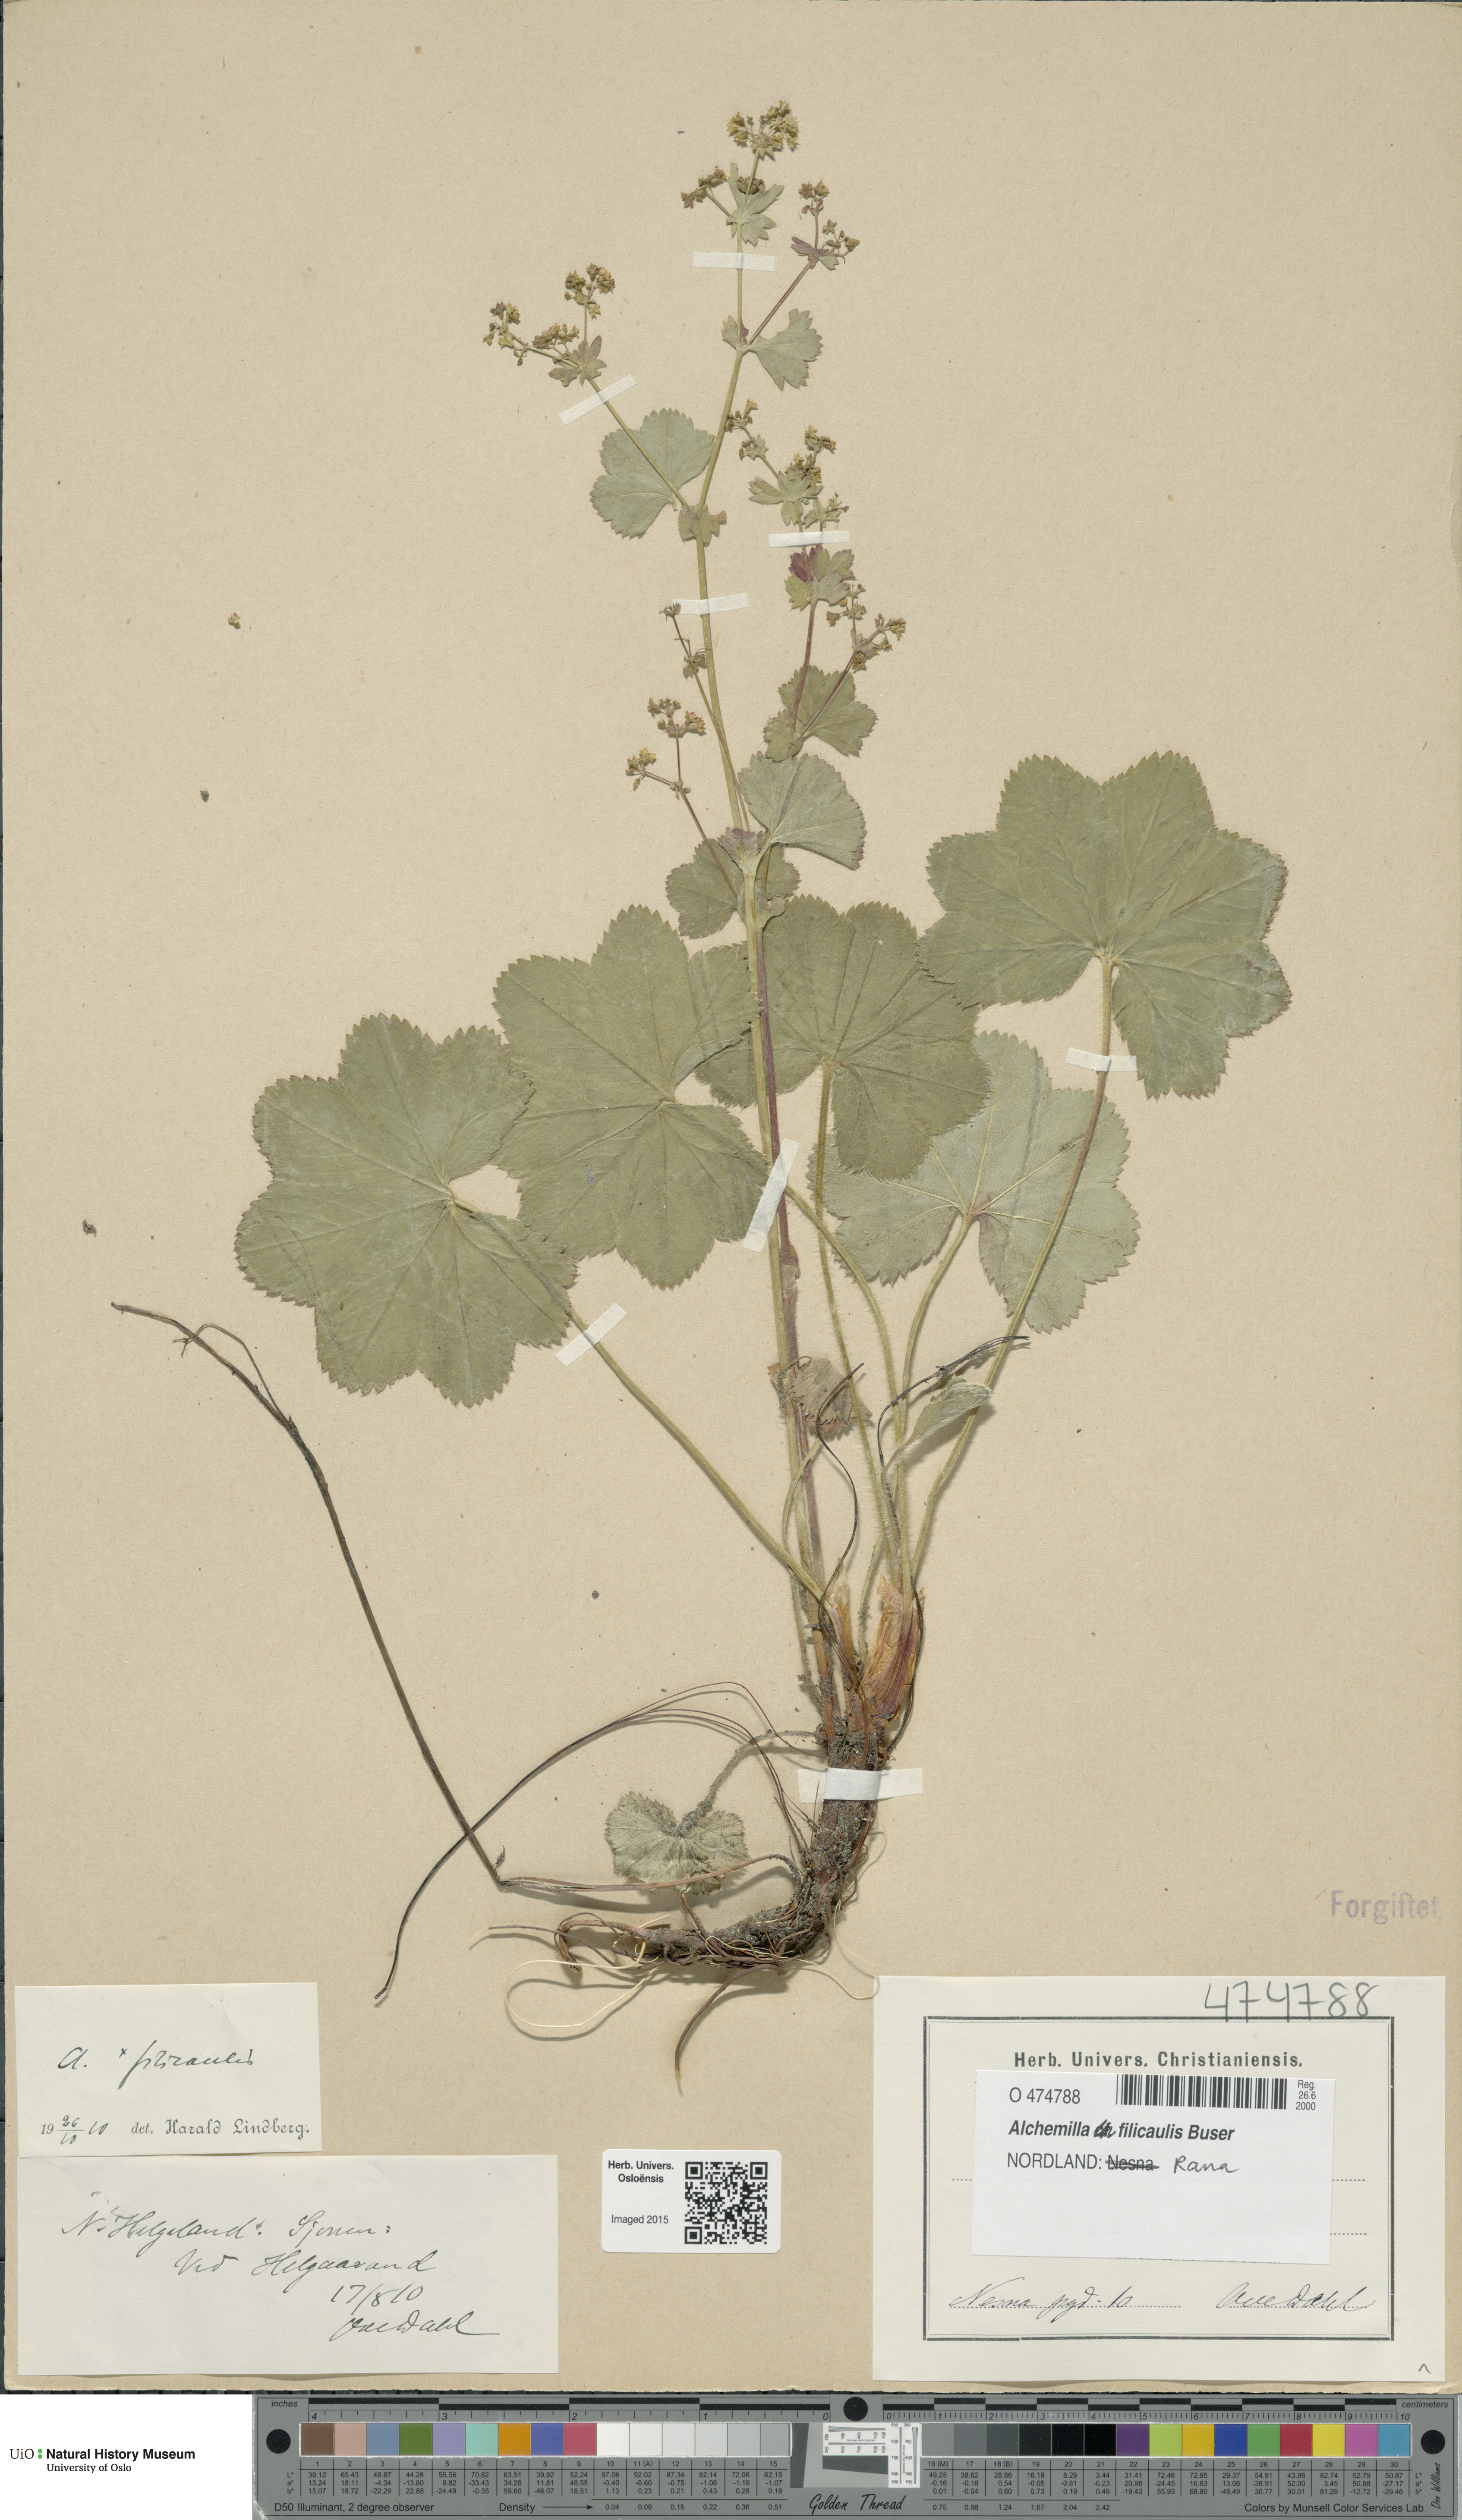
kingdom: Plantae
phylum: Tracheophyta
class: Magnoliopsida
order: Rosales
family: Rosaceae
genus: Alchemilla
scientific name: Alchemilla filicaulis
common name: Hairy lady's-mantle
